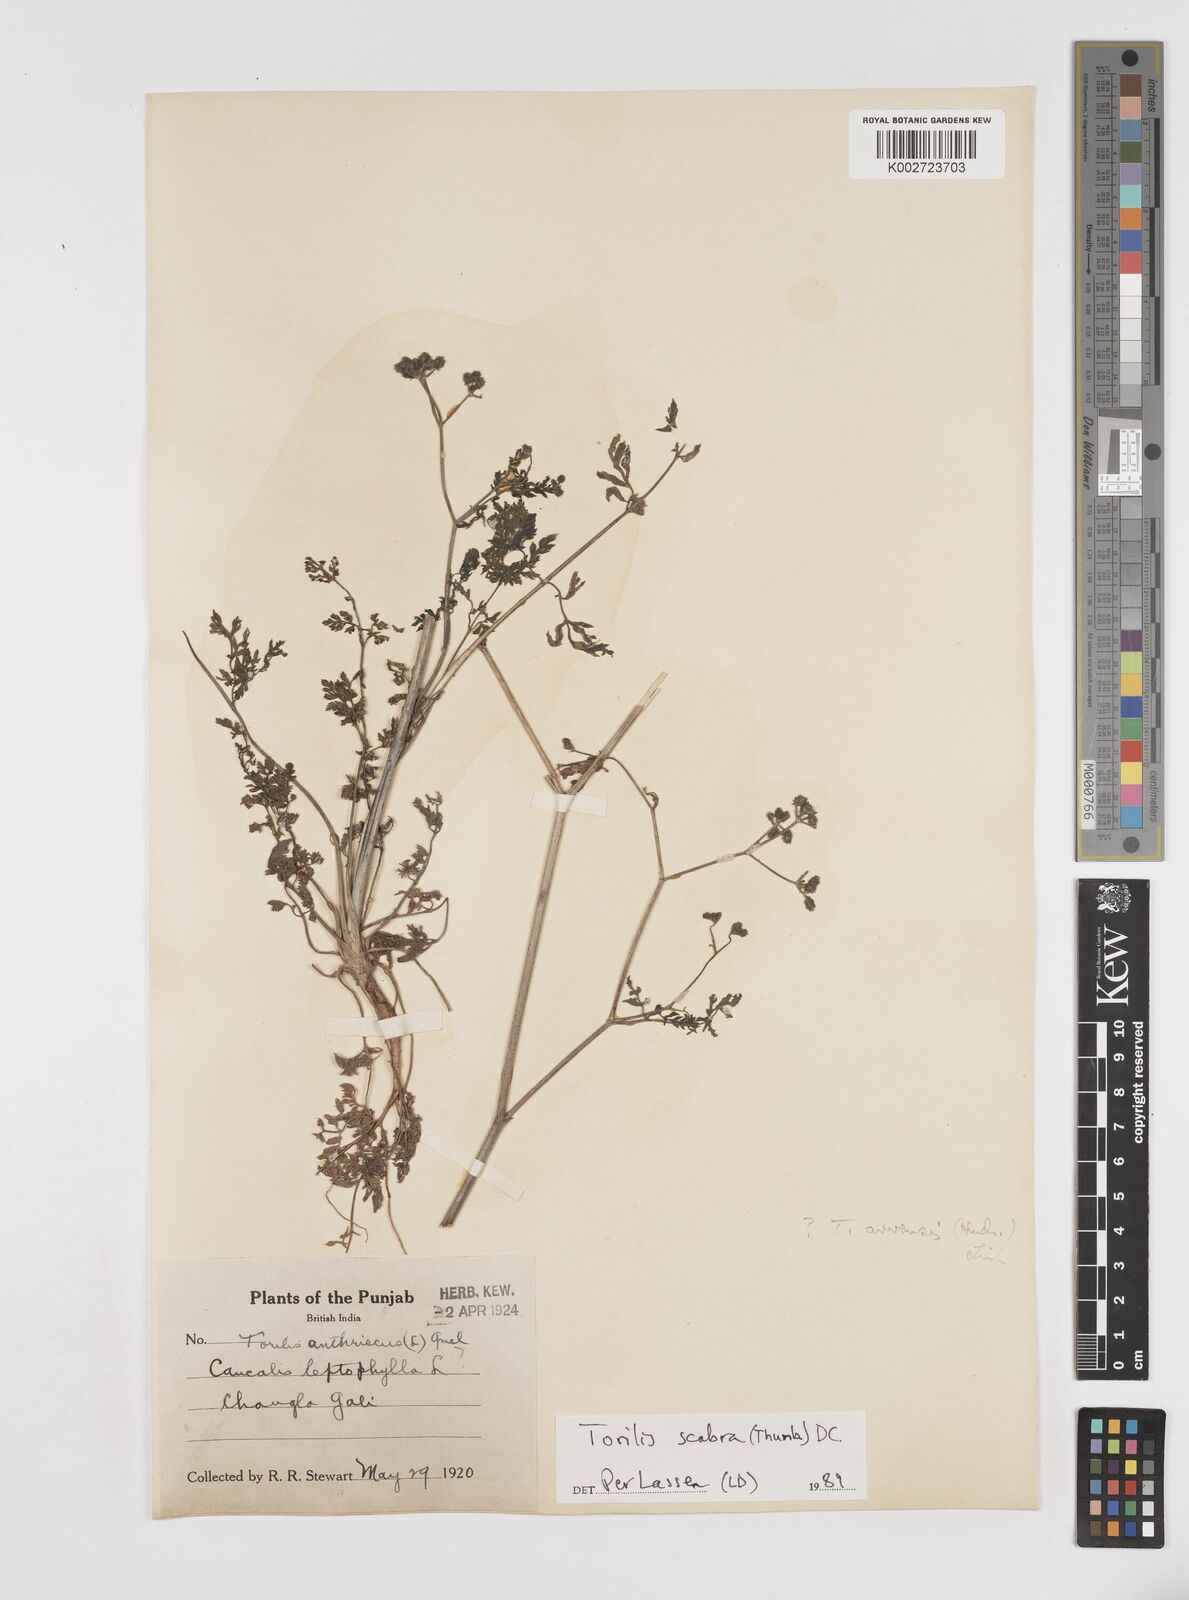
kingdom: Plantae
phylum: Tracheophyta
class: Magnoliopsida
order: Apiales
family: Apiaceae
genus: Torilis
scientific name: Torilis scabra
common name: Rough hedgeparsley
